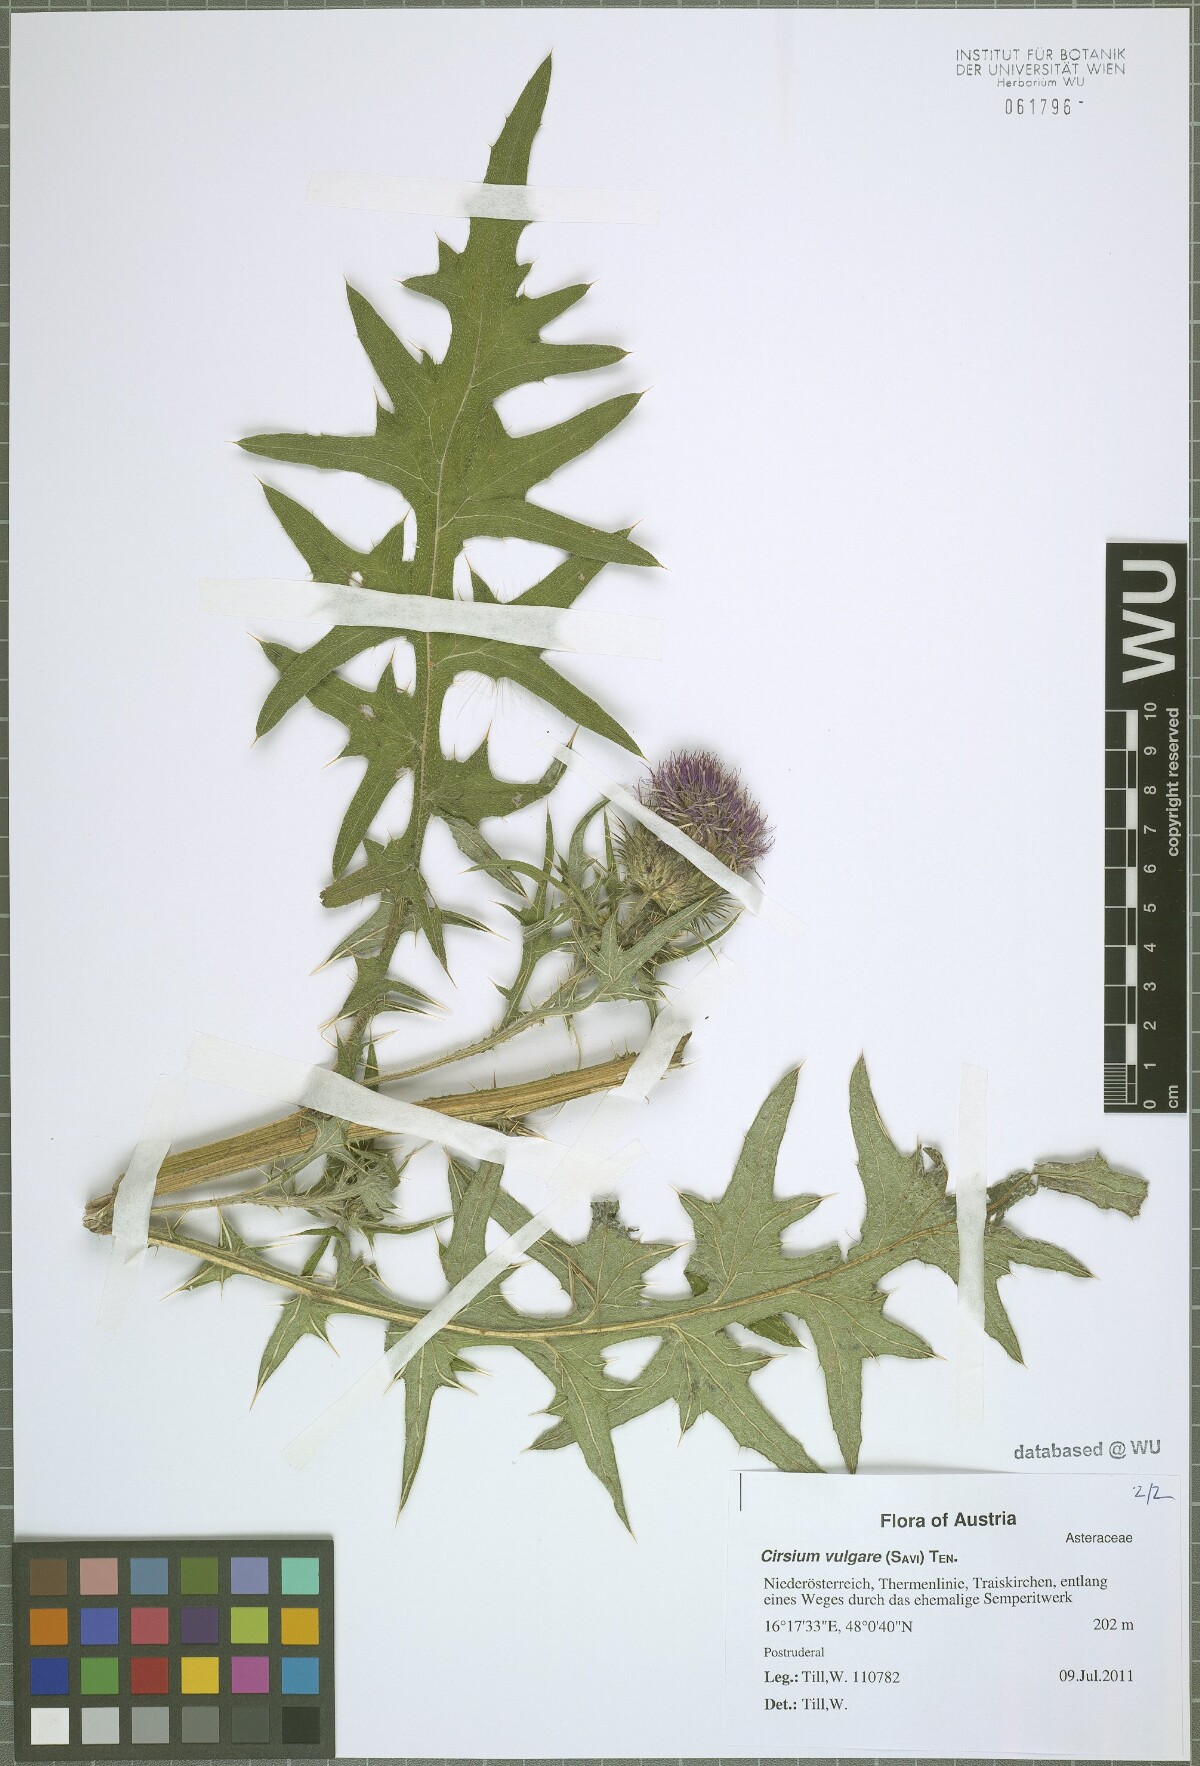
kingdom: Plantae
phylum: Tracheophyta
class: Magnoliopsida
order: Asterales
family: Asteraceae
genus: Cirsium
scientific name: Cirsium vulgare
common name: Bull thistle
